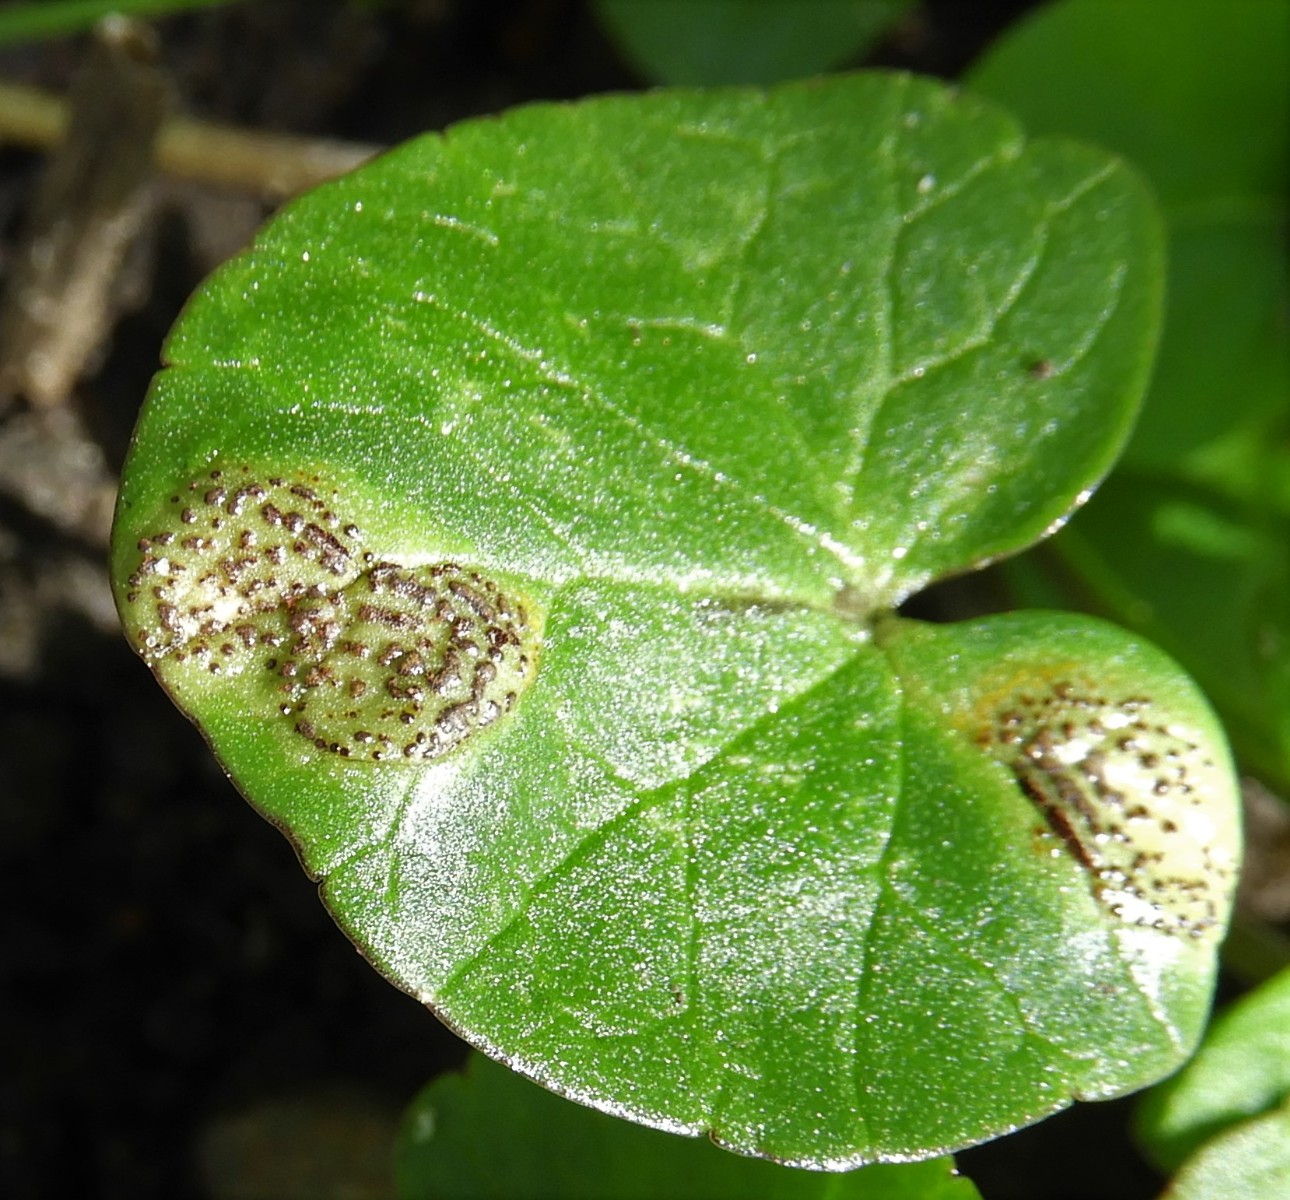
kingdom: Fungi
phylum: Basidiomycota
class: Pucciniomycetes
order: Pucciniales
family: Pucciniaceae
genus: Uromyces
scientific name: Uromyces ficariae
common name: vorterod-encellerust
